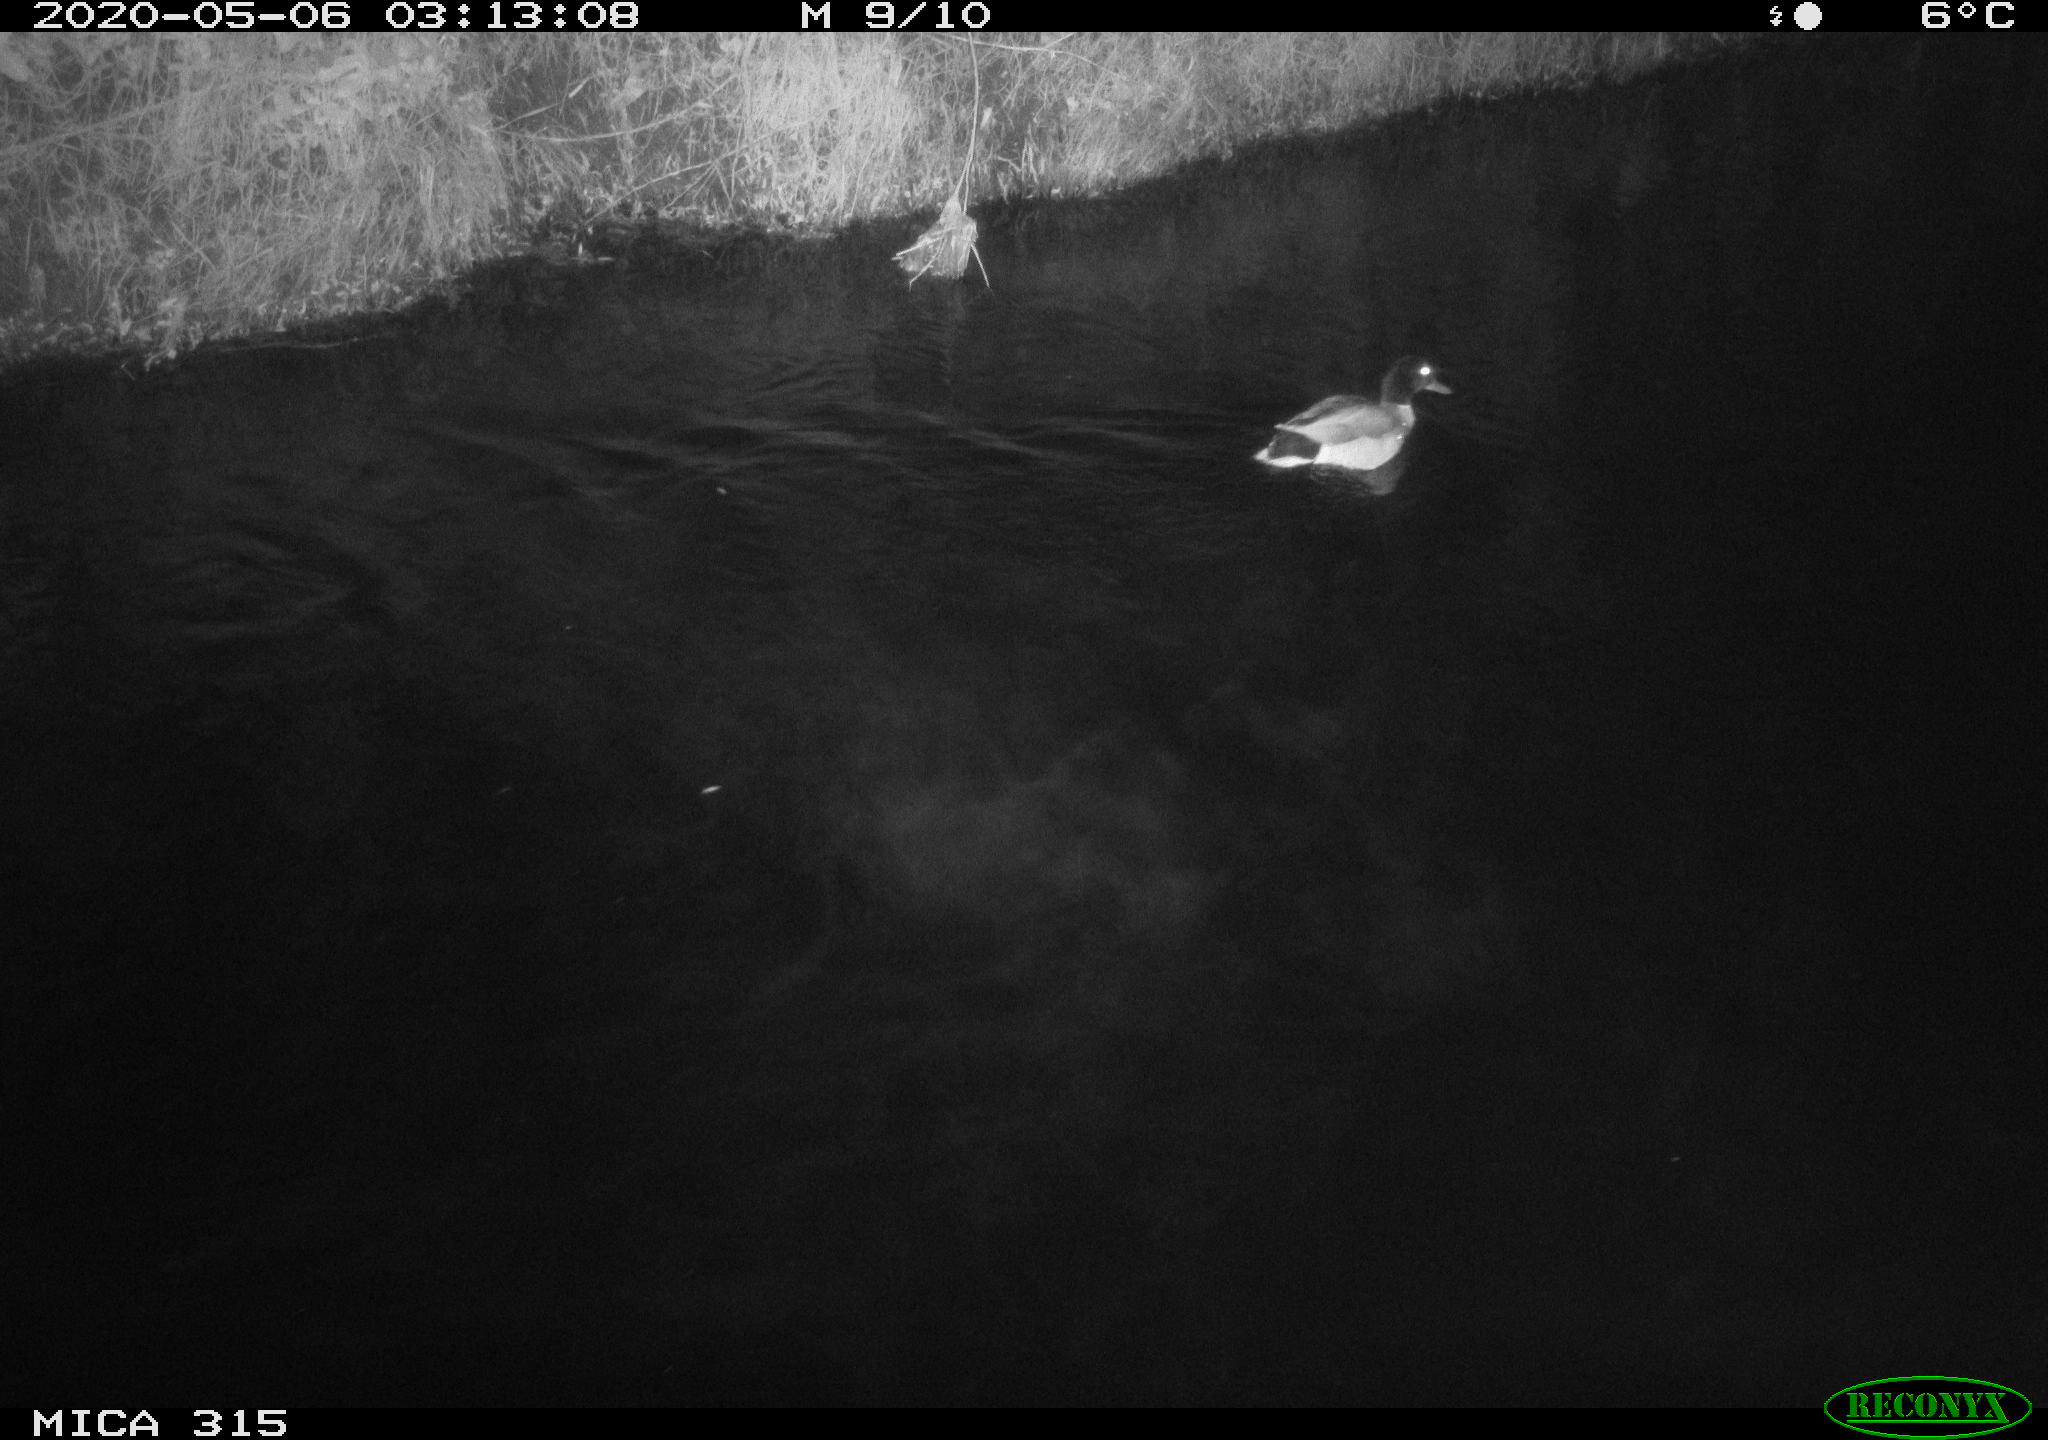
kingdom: Animalia
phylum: Chordata
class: Aves
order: Anseriformes
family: Anatidae
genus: Anas
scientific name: Anas platyrhynchos
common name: Mallard
